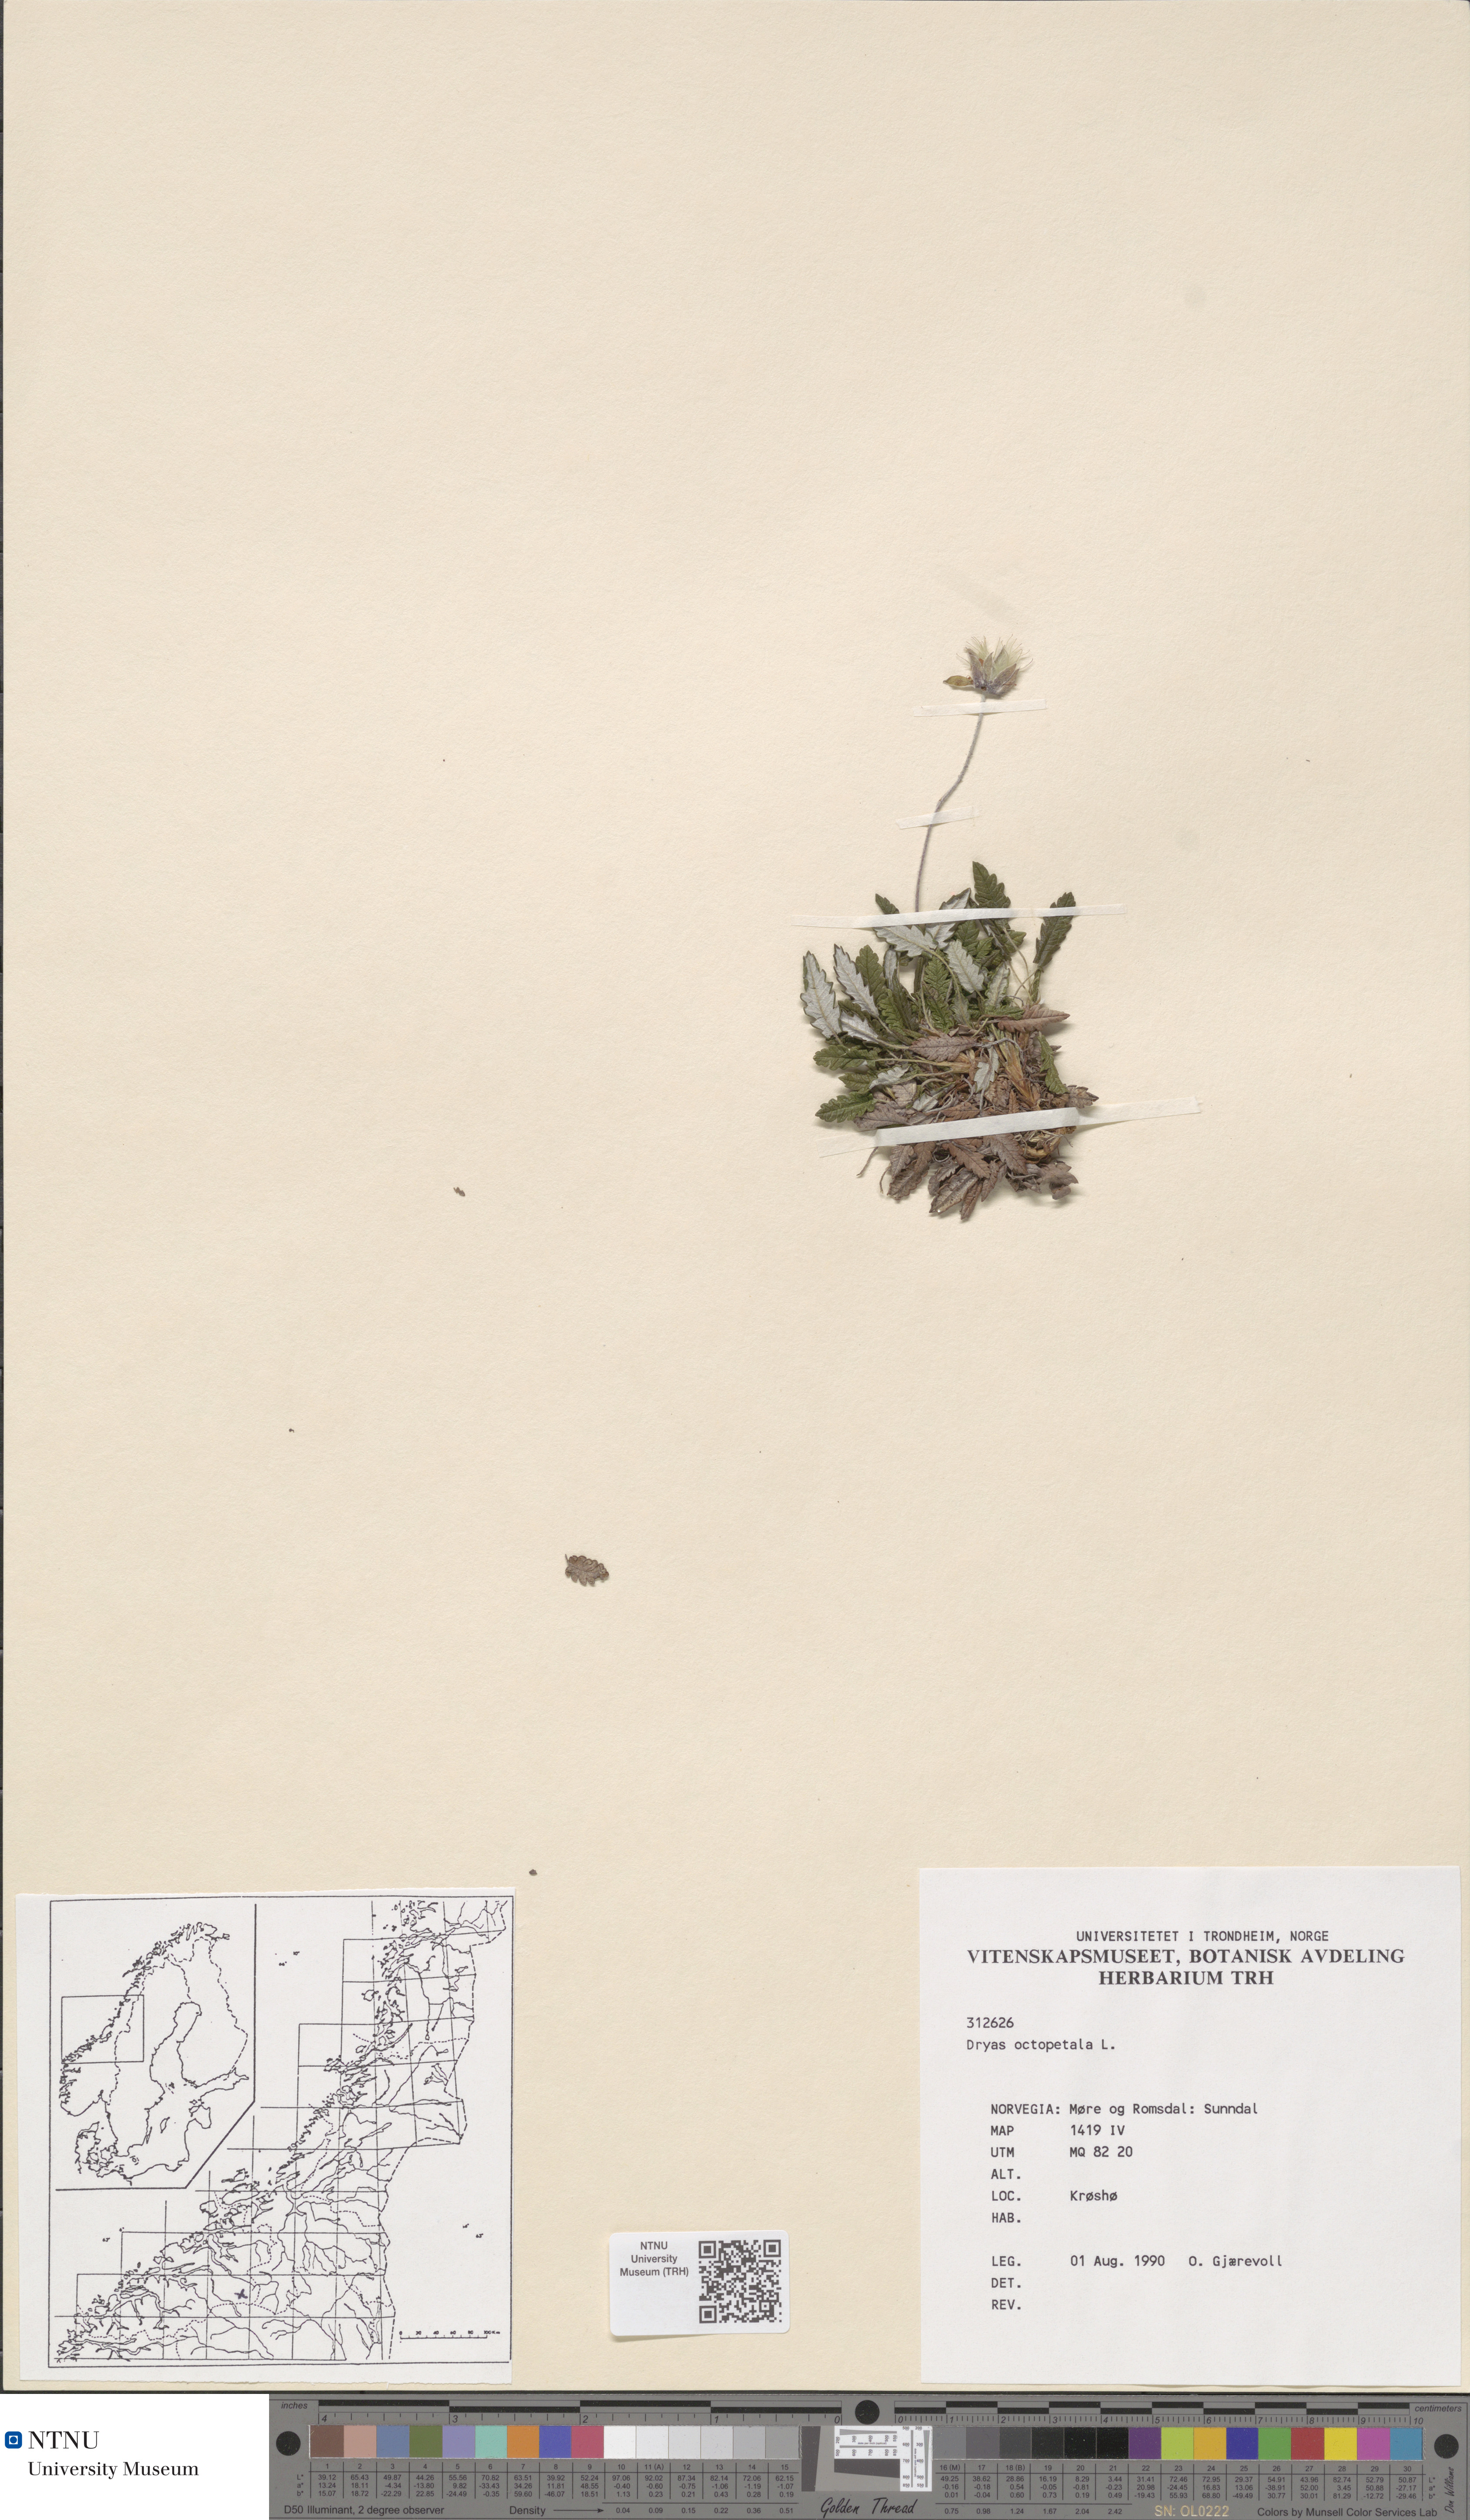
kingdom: Plantae
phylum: Tracheophyta
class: Magnoliopsida
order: Rosales
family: Rosaceae
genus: Dryas
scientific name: Dryas octopetala
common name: Eight-petal mountain-avens
